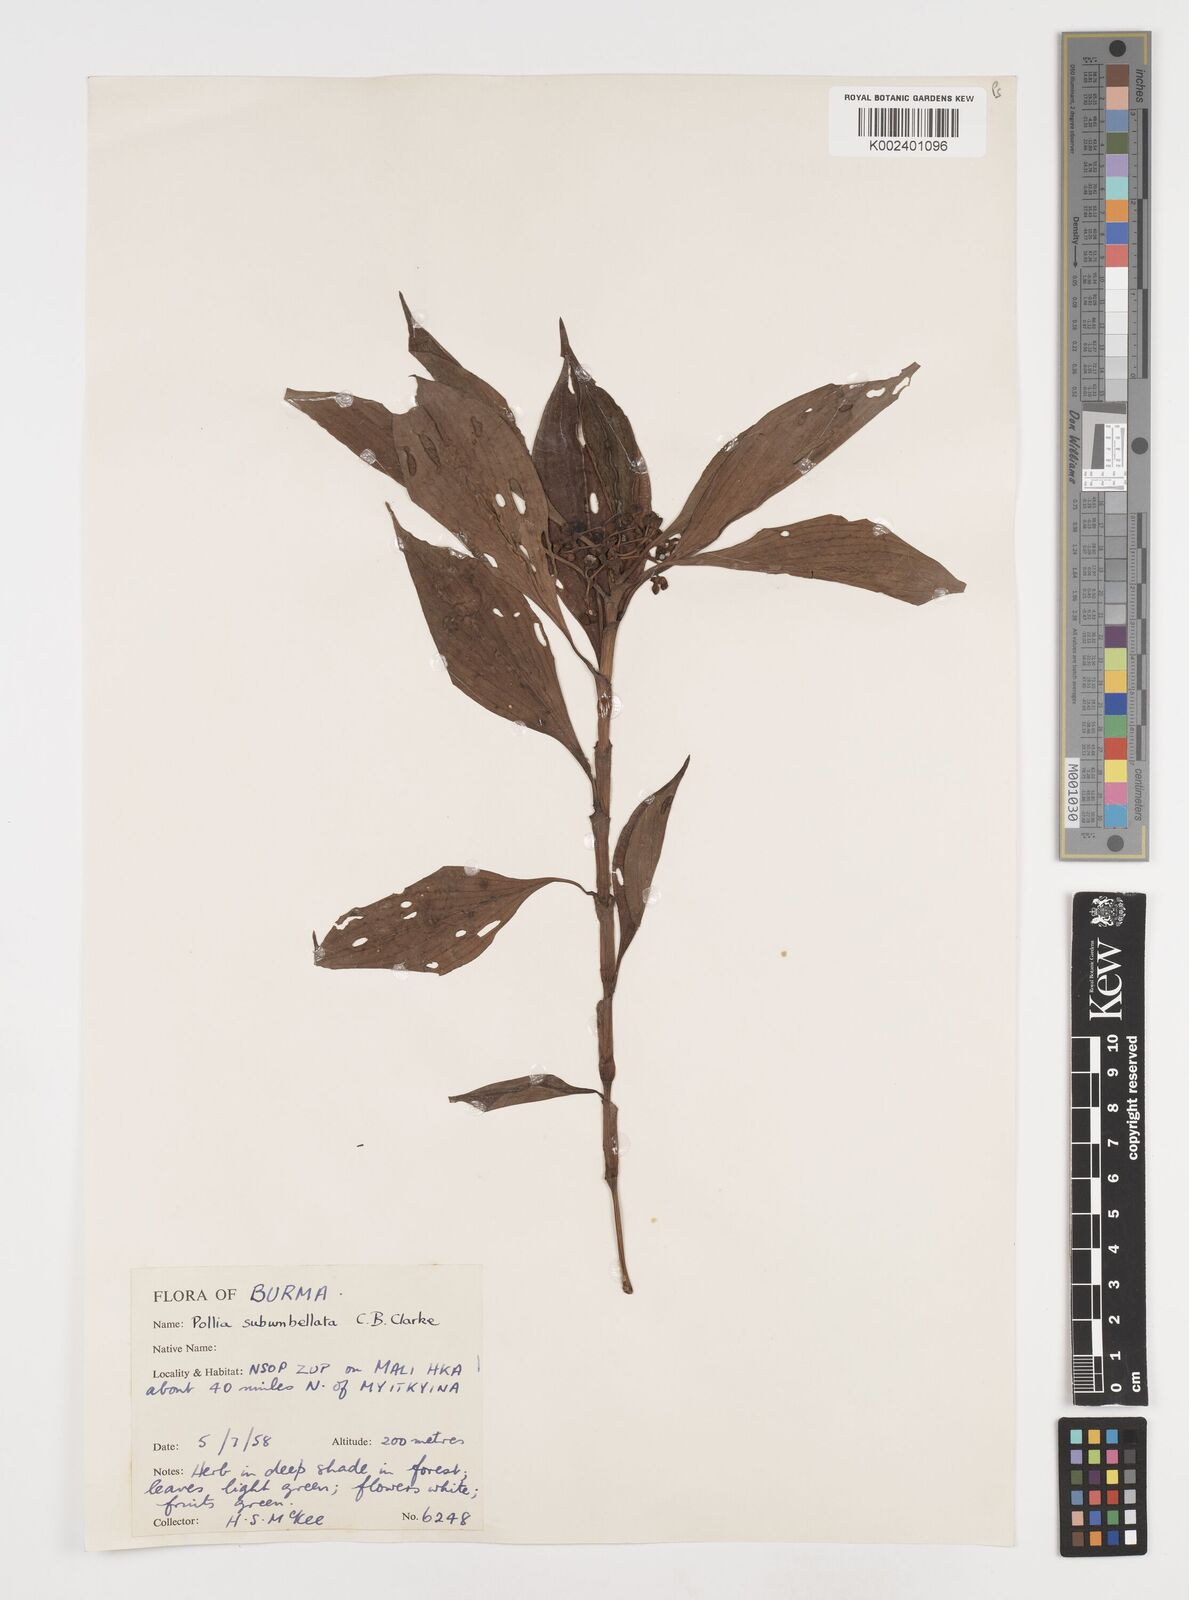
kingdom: Plantae
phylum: Tracheophyta
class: Liliopsida
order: Commelinales
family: Commelinaceae
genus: Pollia
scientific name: Pollia subumbellata
